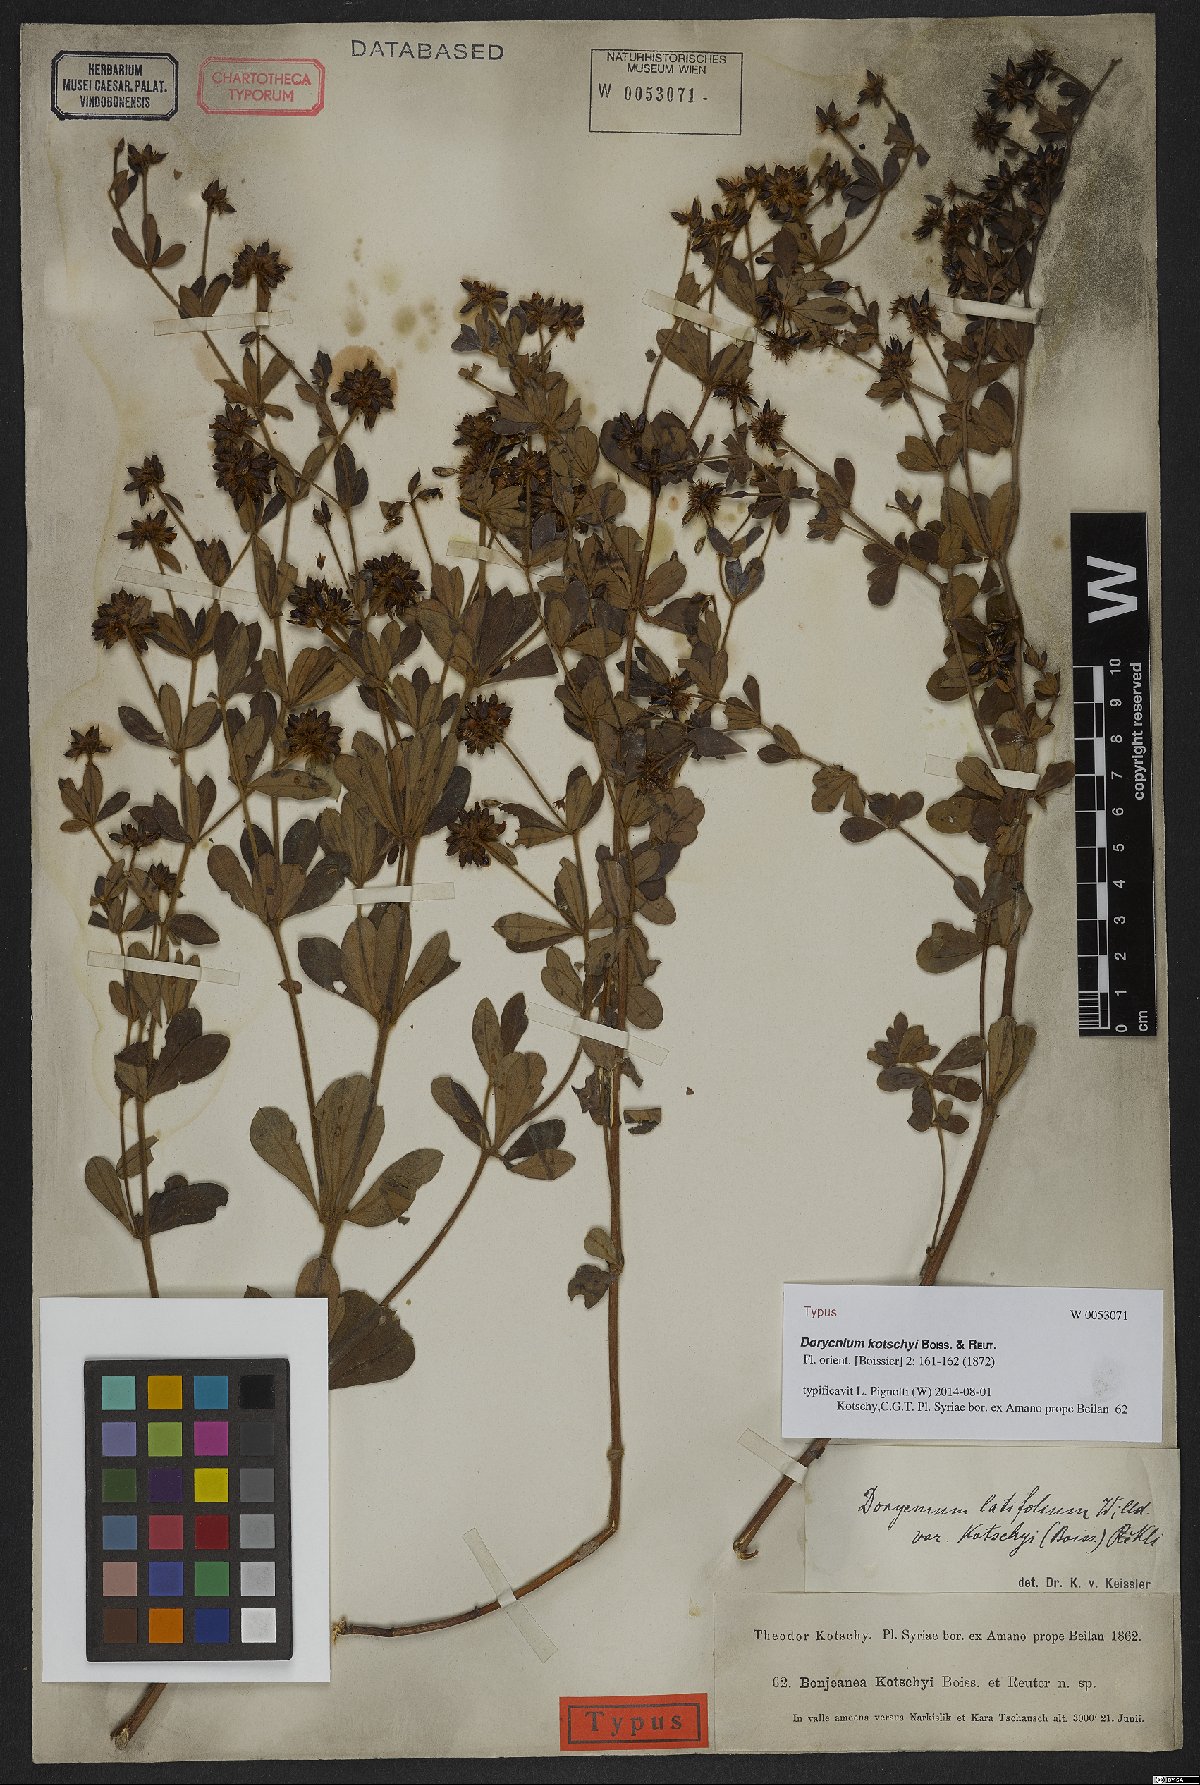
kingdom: Plantae
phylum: Tracheophyta
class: Magnoliopsida
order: Fabales
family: Fabaceae
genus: Lotus
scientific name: Lotus graecus
